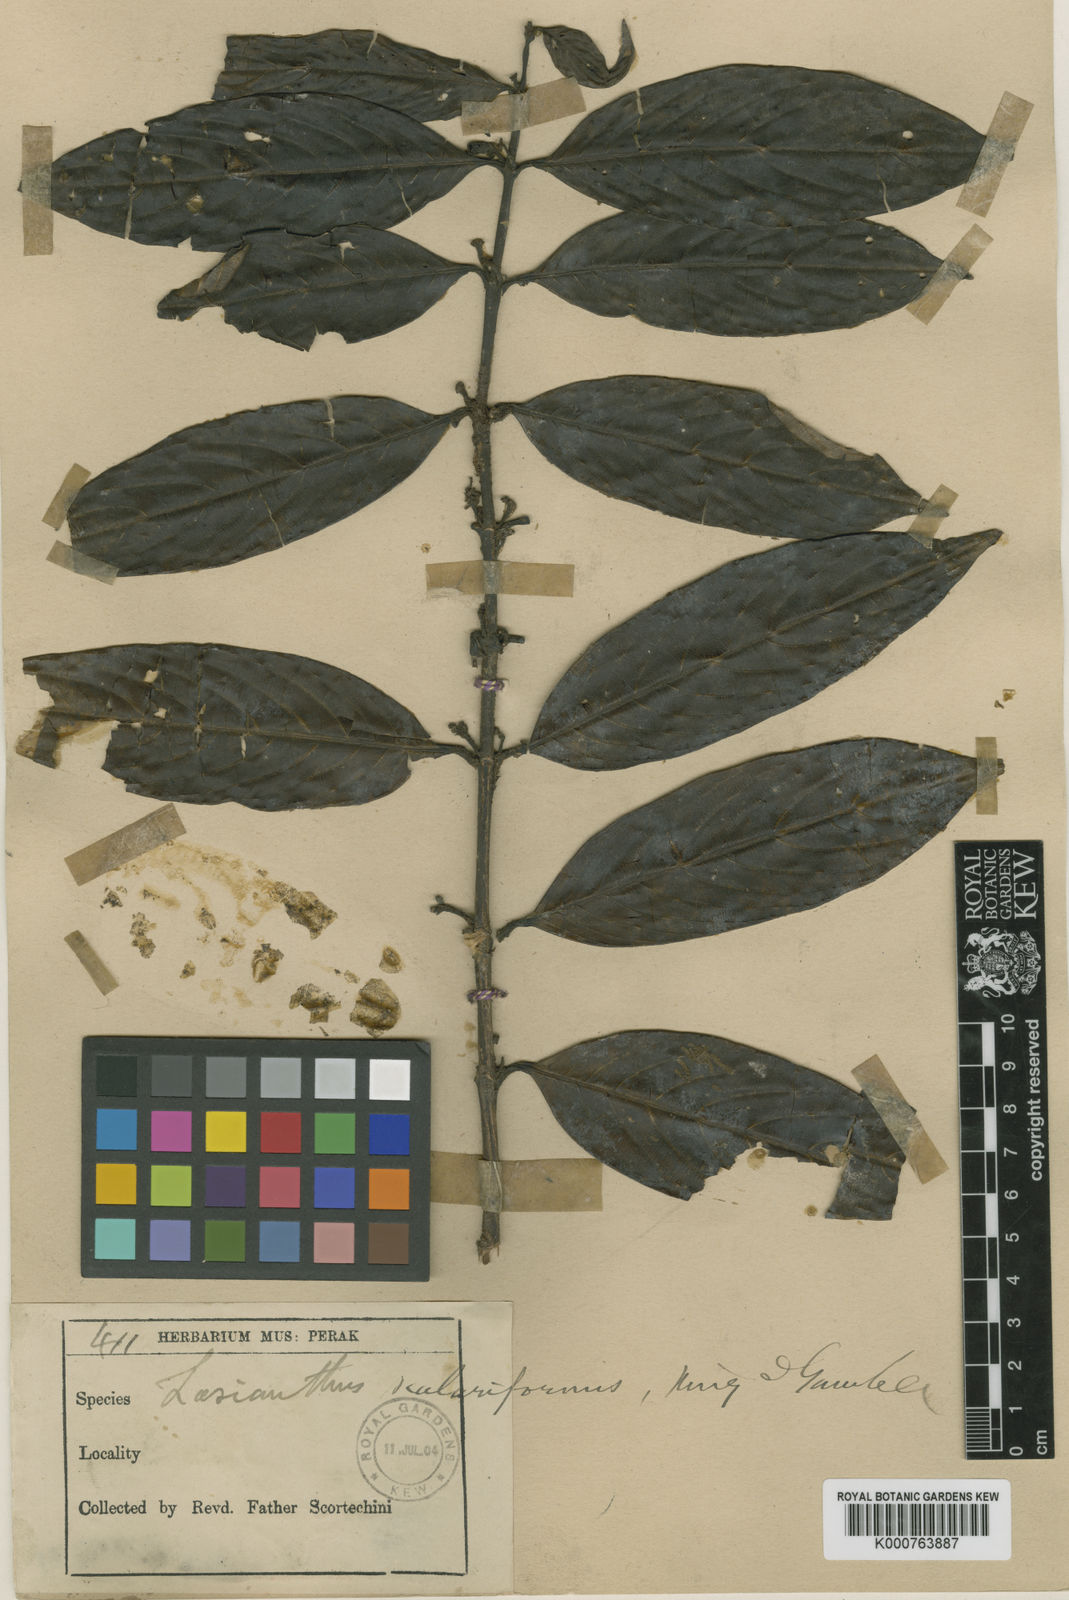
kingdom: Plantae
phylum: Tracheophyta
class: Magnoliopsida
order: Gentianales
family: Rubiaceae
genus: Lasianthus
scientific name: Lasianthus scalariformis
